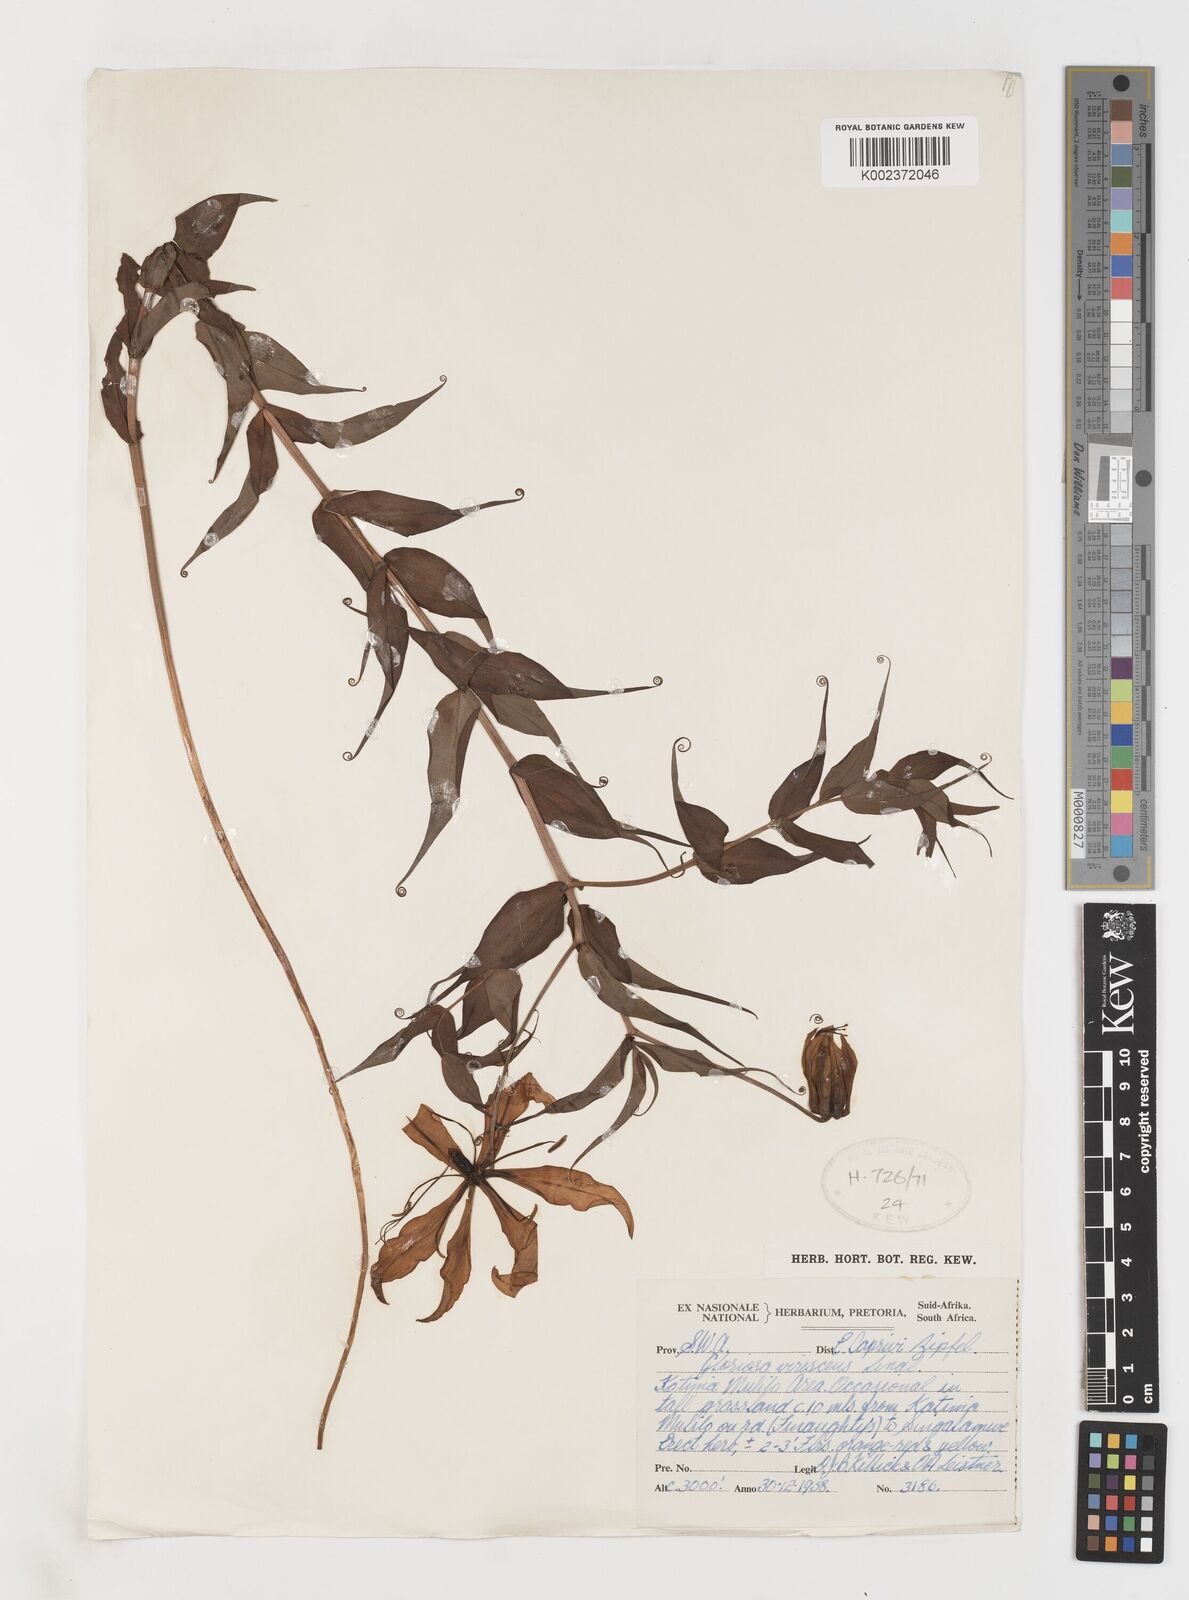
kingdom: Plantae
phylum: Tracheophyta
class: Liliopsida
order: Liliales
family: Colchicaceae
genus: Gloriosa
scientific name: Gloriosa simplex
